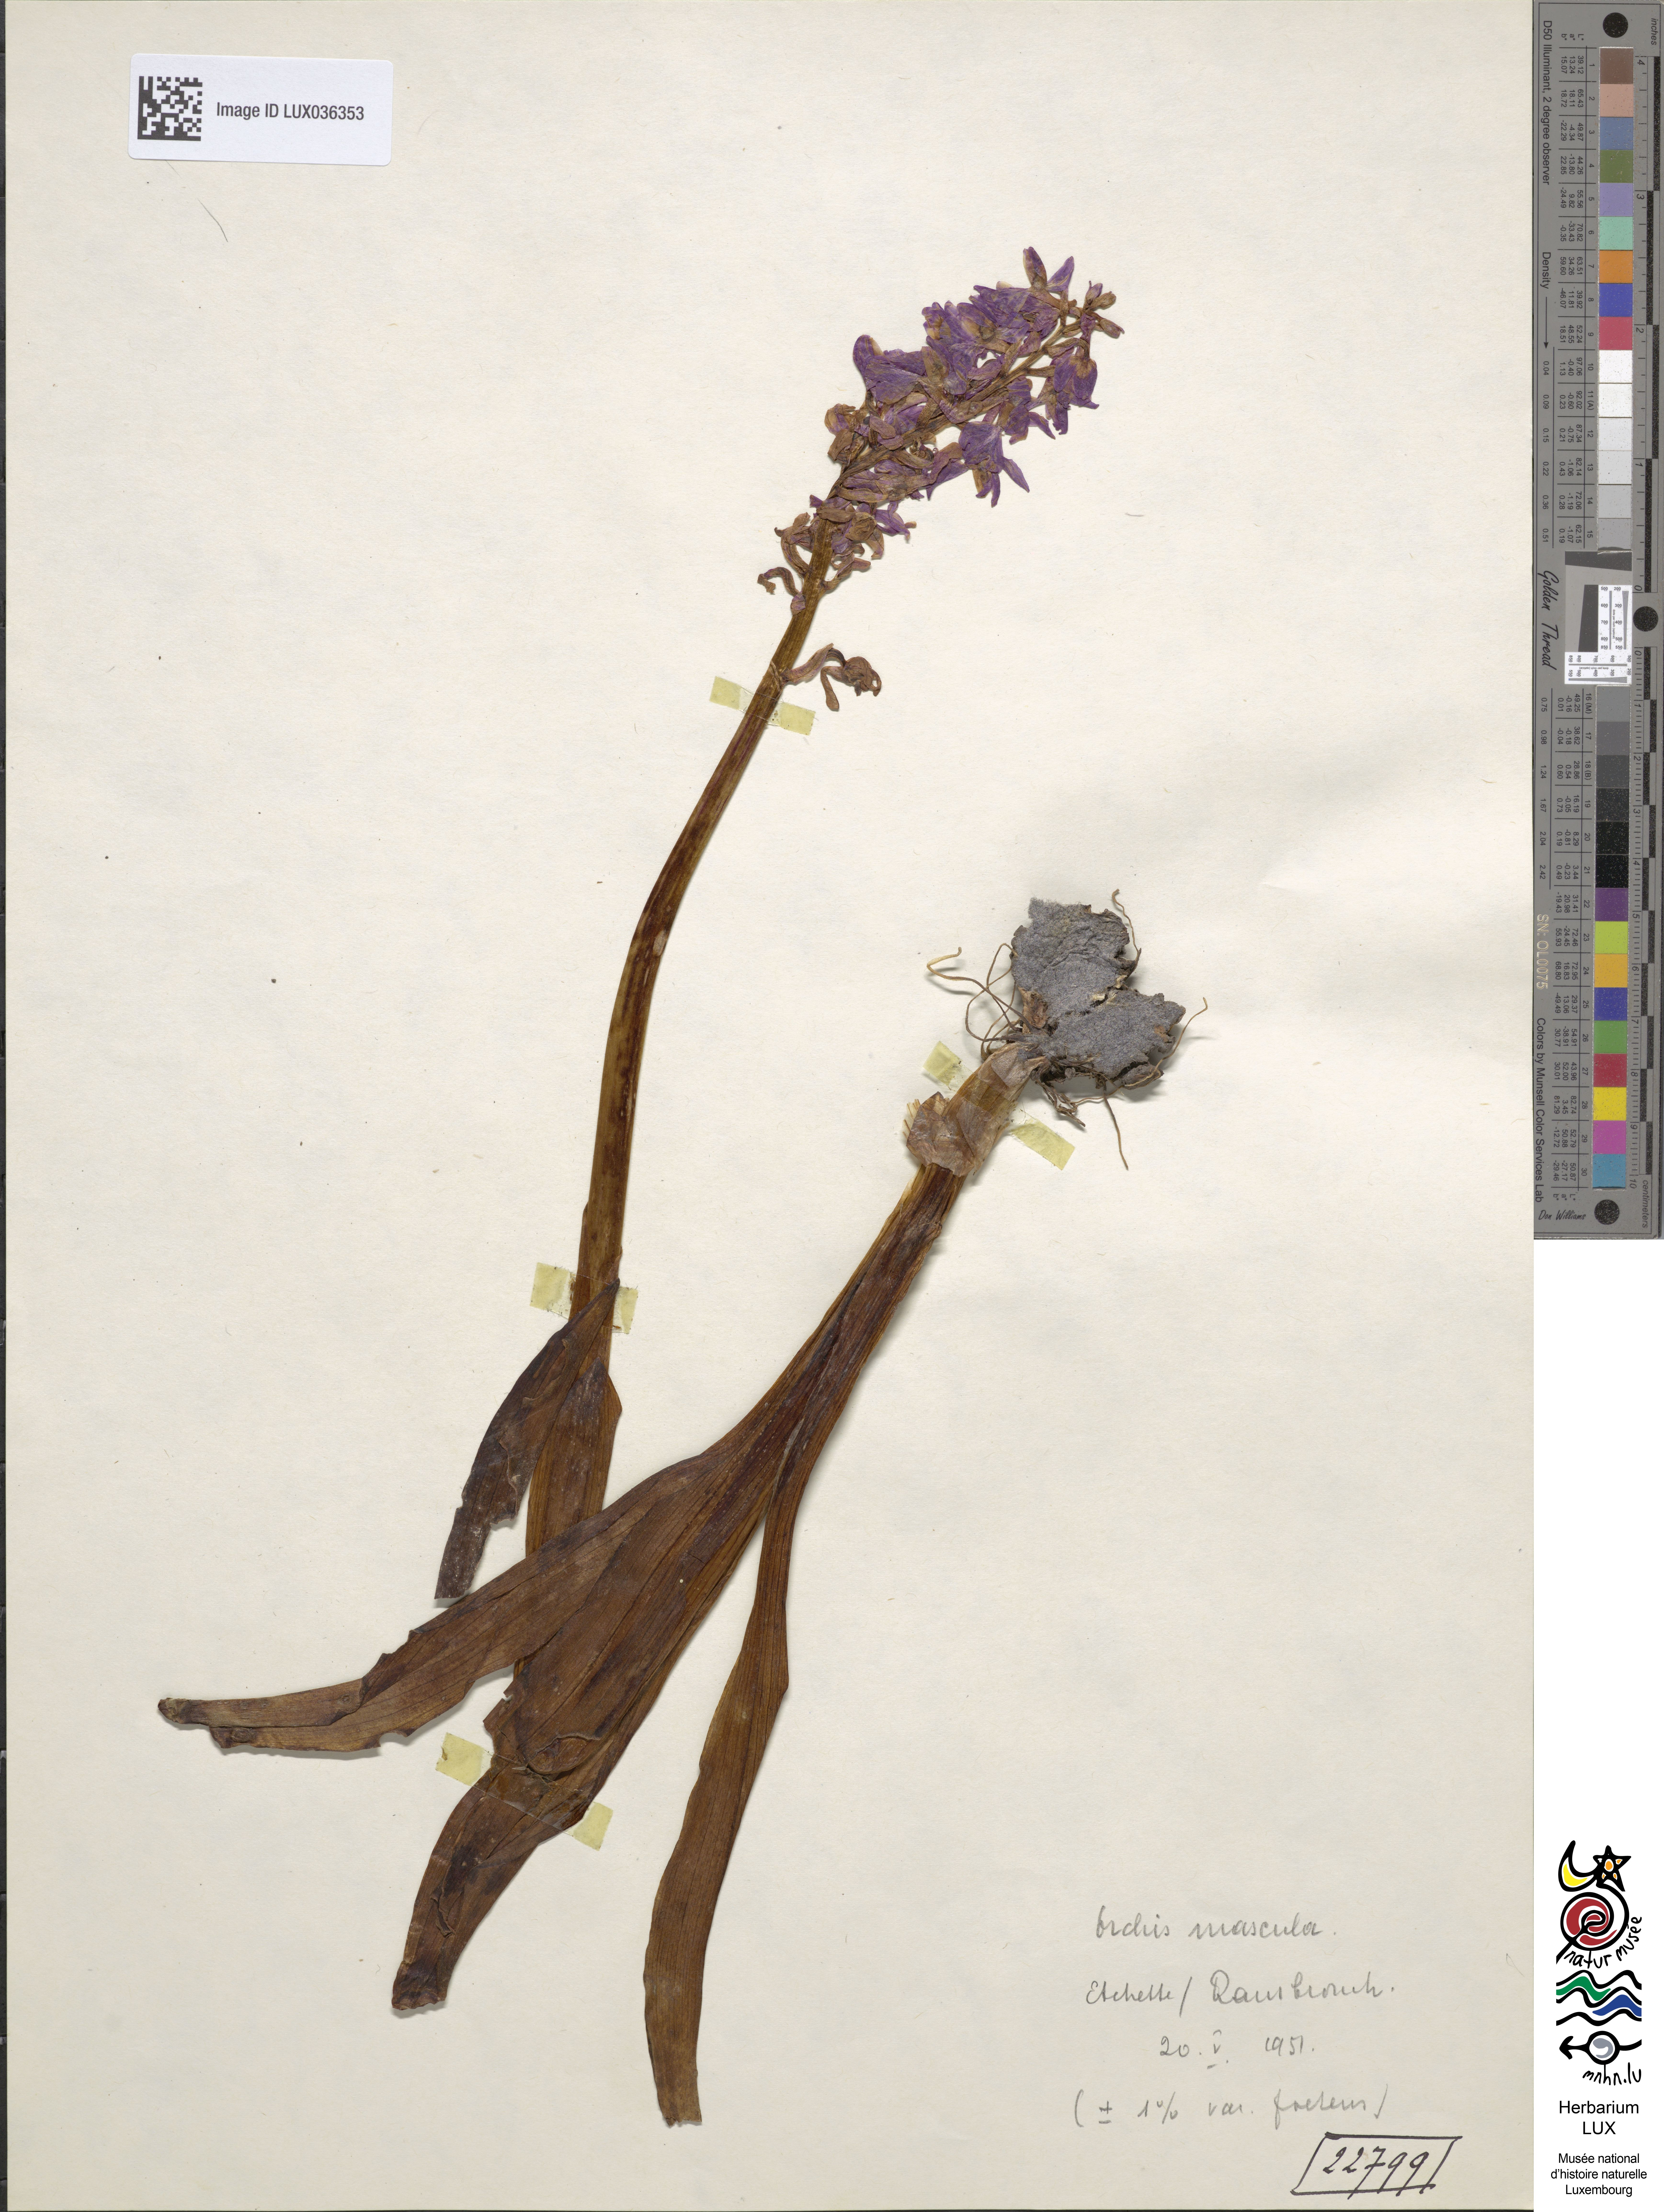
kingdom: Plantae
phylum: Tracheophyta
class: Liliopsida
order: Asparagales
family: Orchidaceae
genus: Orchis
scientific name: Orchis mascula
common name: Early-purple orchid
